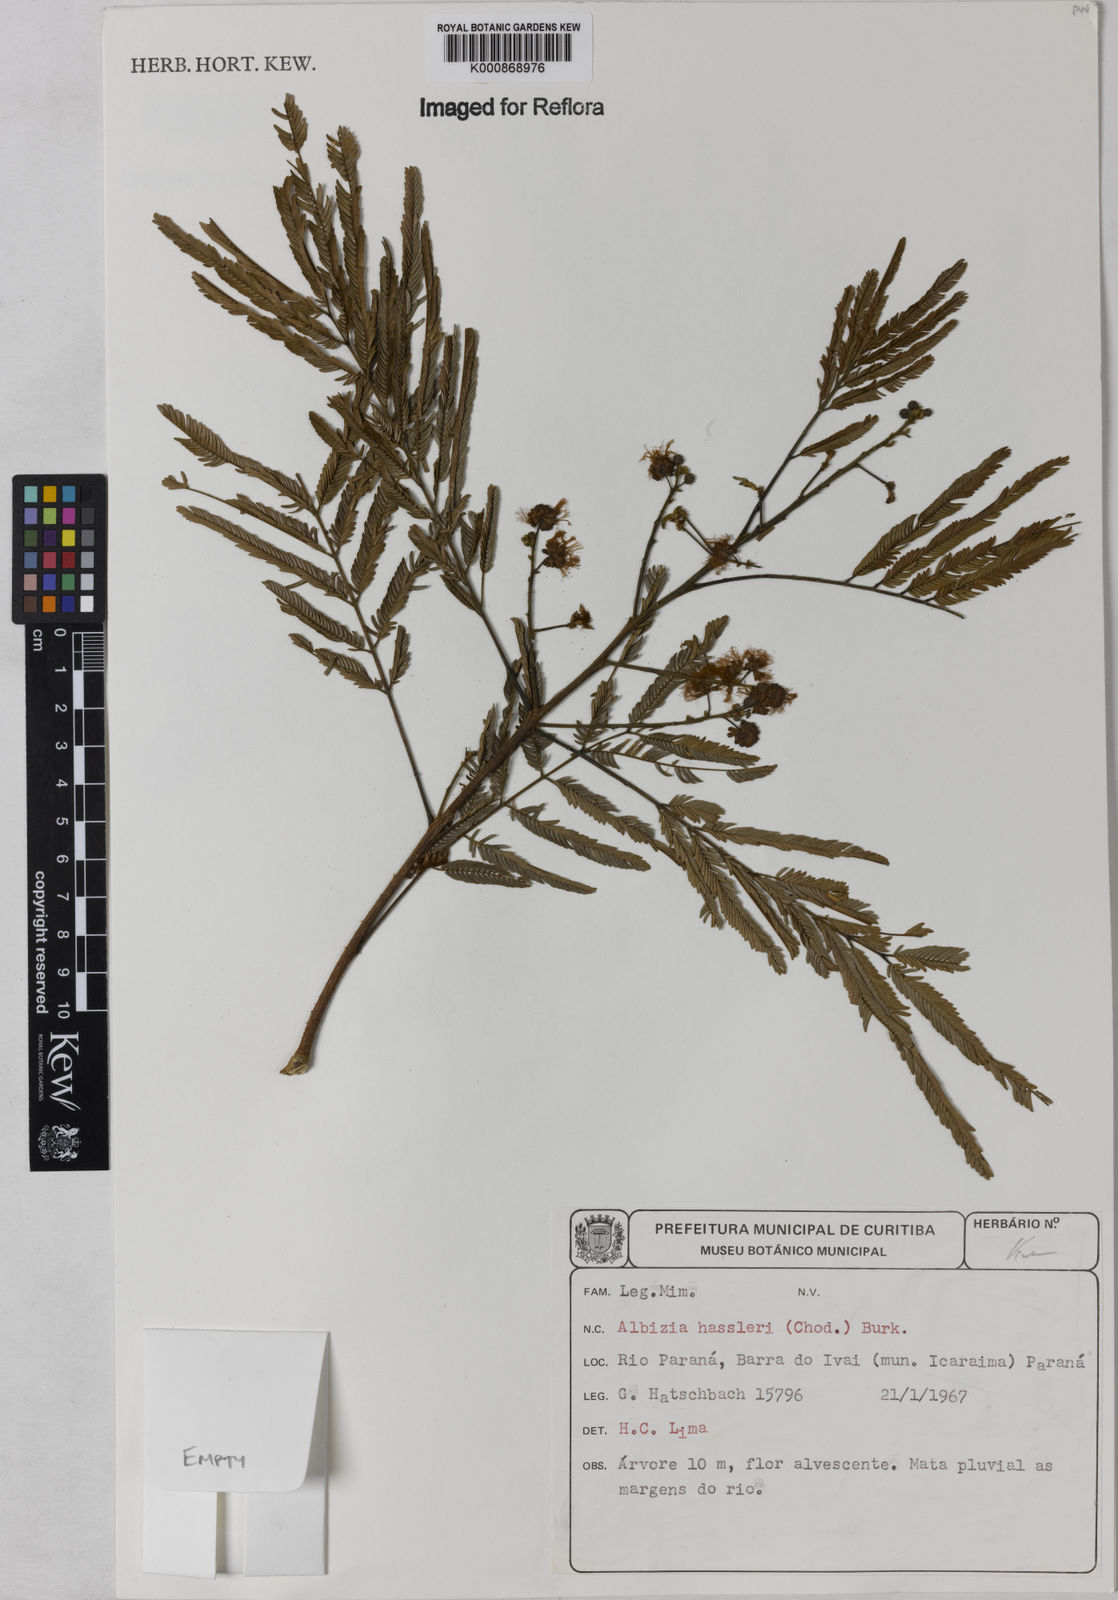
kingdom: Plantae
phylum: Tracheophyta
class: Magnoliopsida
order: Fabales
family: Fabaceae
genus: Albizia
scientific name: Albizia niopoides
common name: Silk tree
